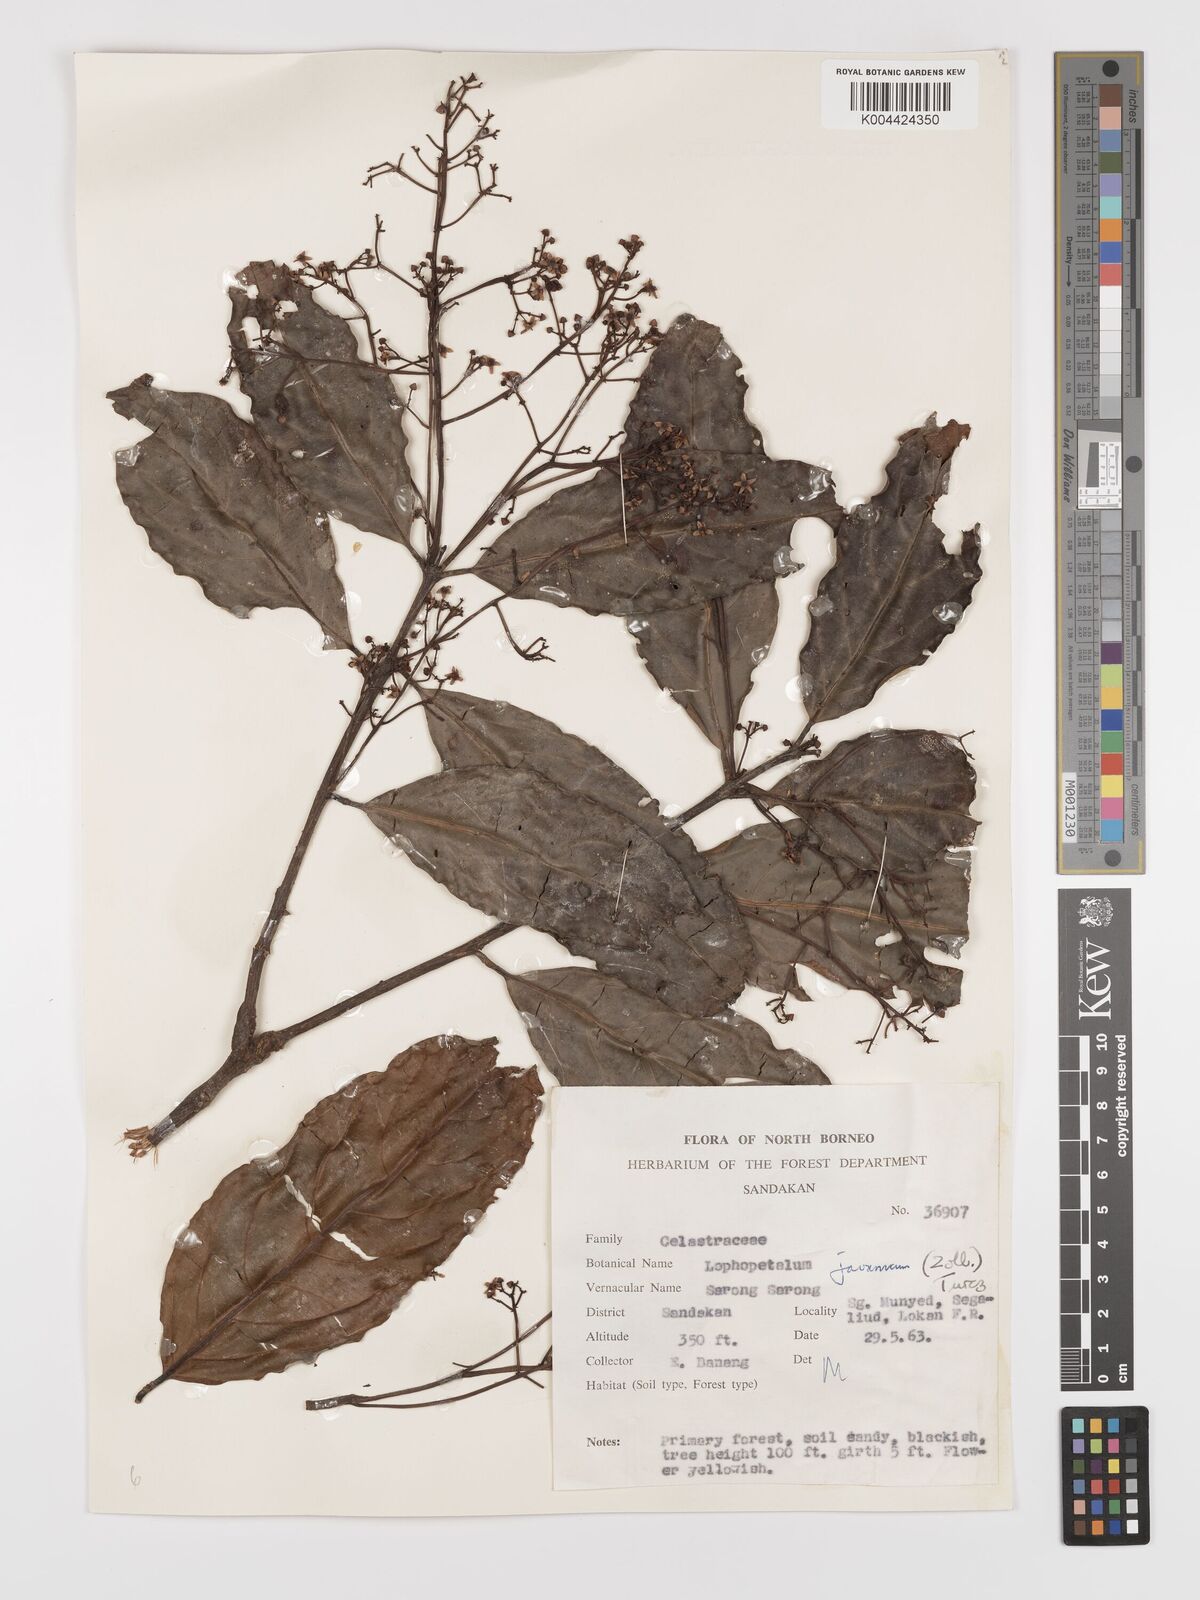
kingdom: Plantae
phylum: Tracheophyta
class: Magnoliopsida
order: Celastrales
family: Celastraceae
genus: Lophopetalum
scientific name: Lophopetalum javanicum
